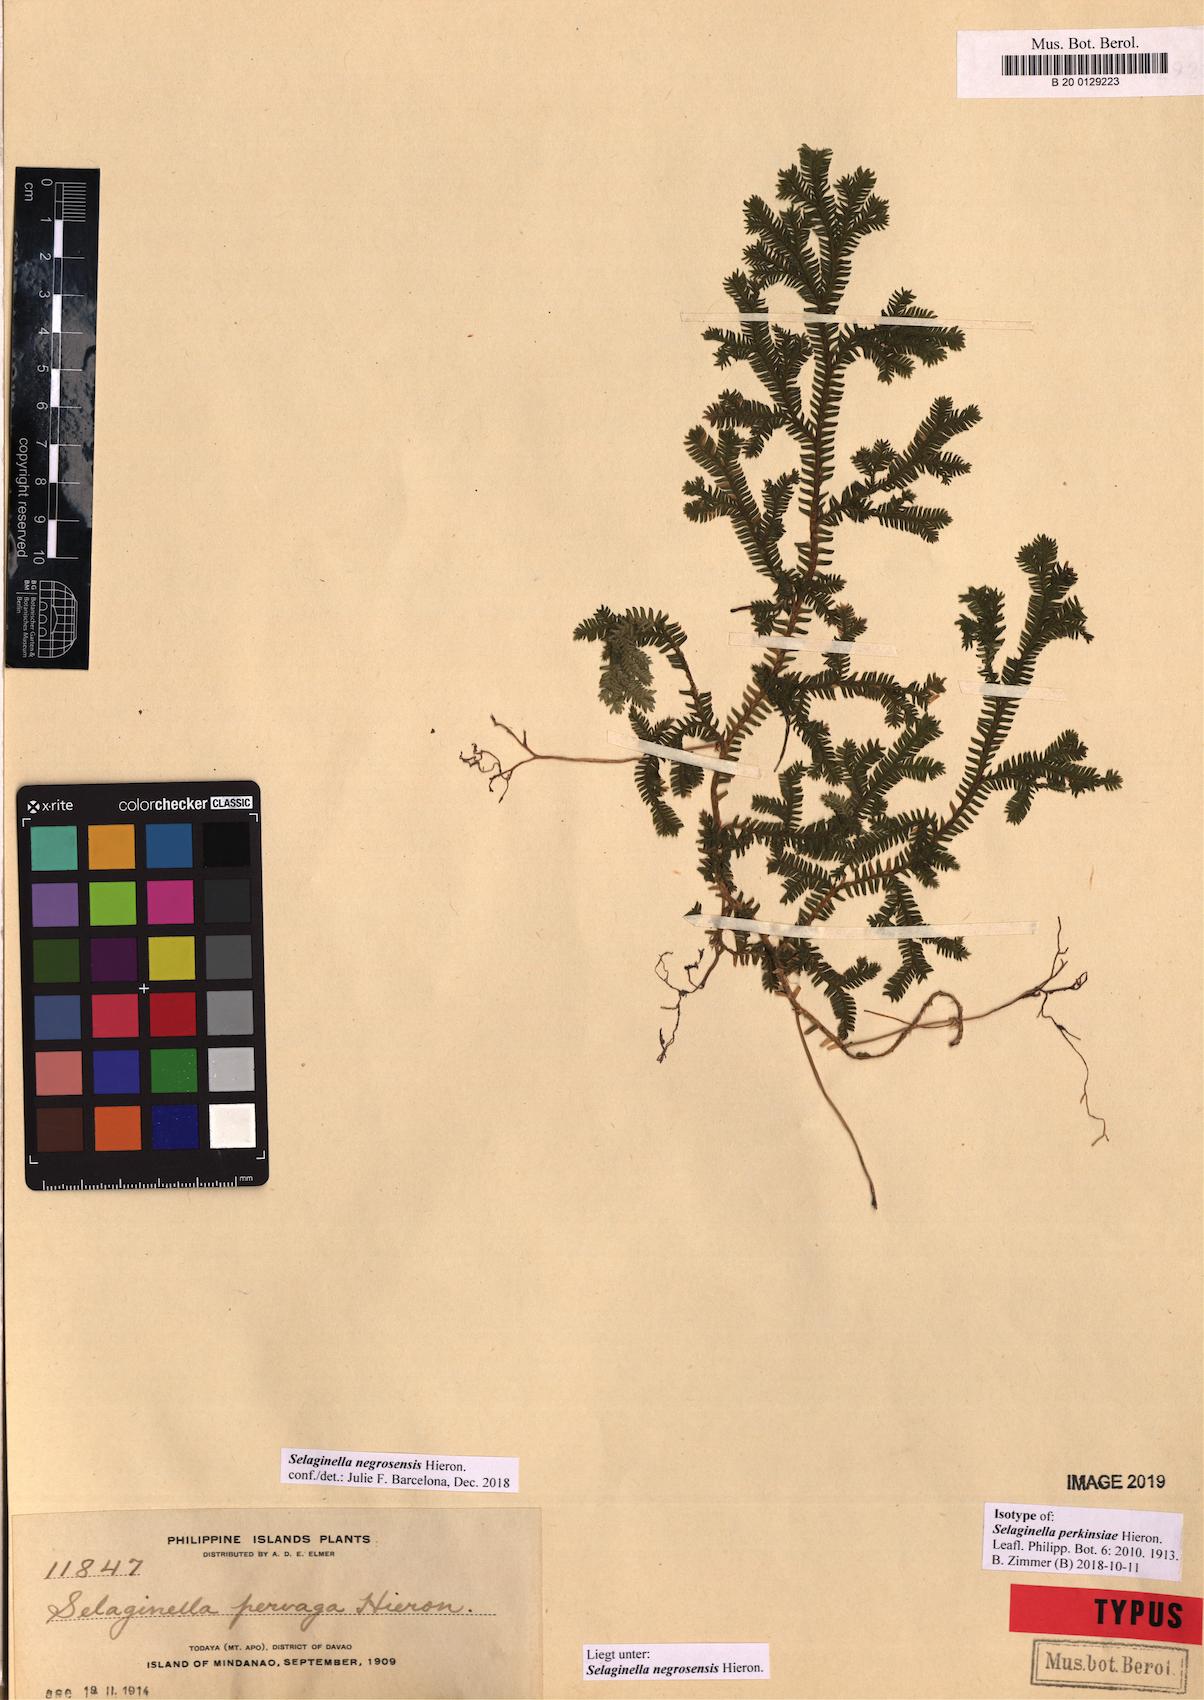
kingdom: Plantae
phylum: Tracheophyta
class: Lycopodiopsida
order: Selaginellales
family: Selaginellaceae
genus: Selaginella
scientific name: Selaginella negrosensis
